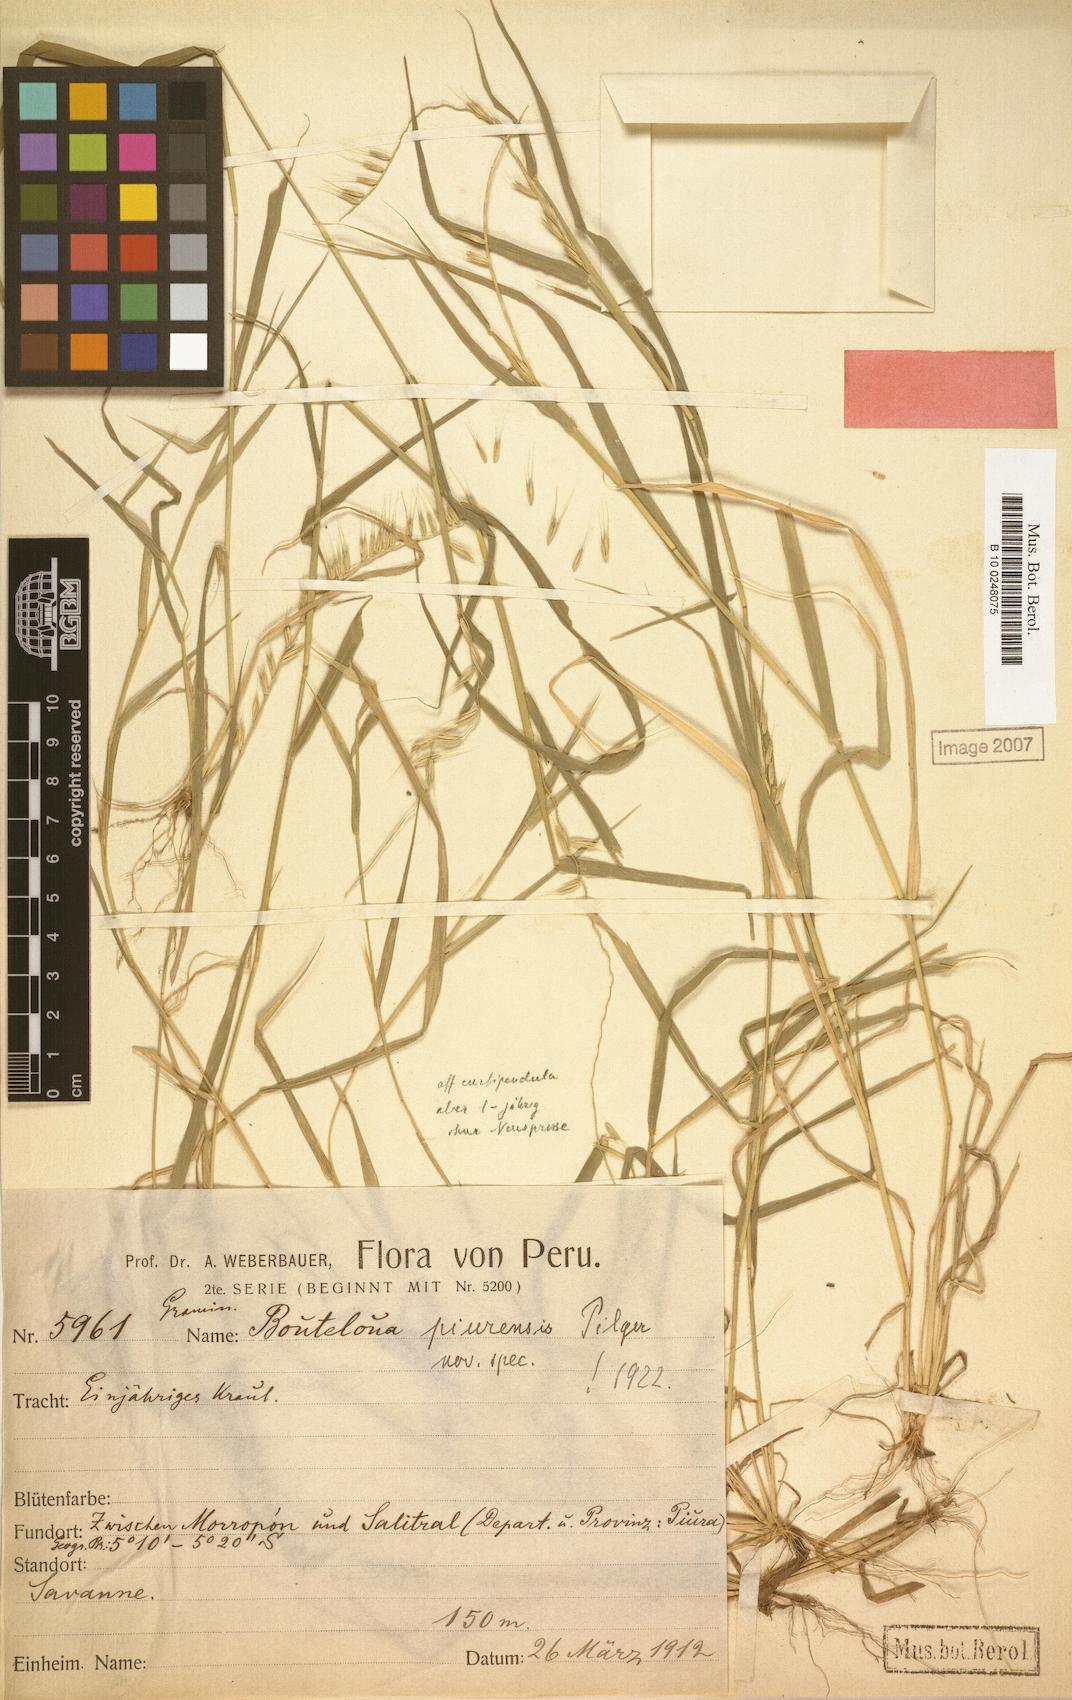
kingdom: Plantae
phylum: Tracheophyta
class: Liliopsida
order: Poales
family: Poaceae
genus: Bouteloua
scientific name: Bouteloua disticha
